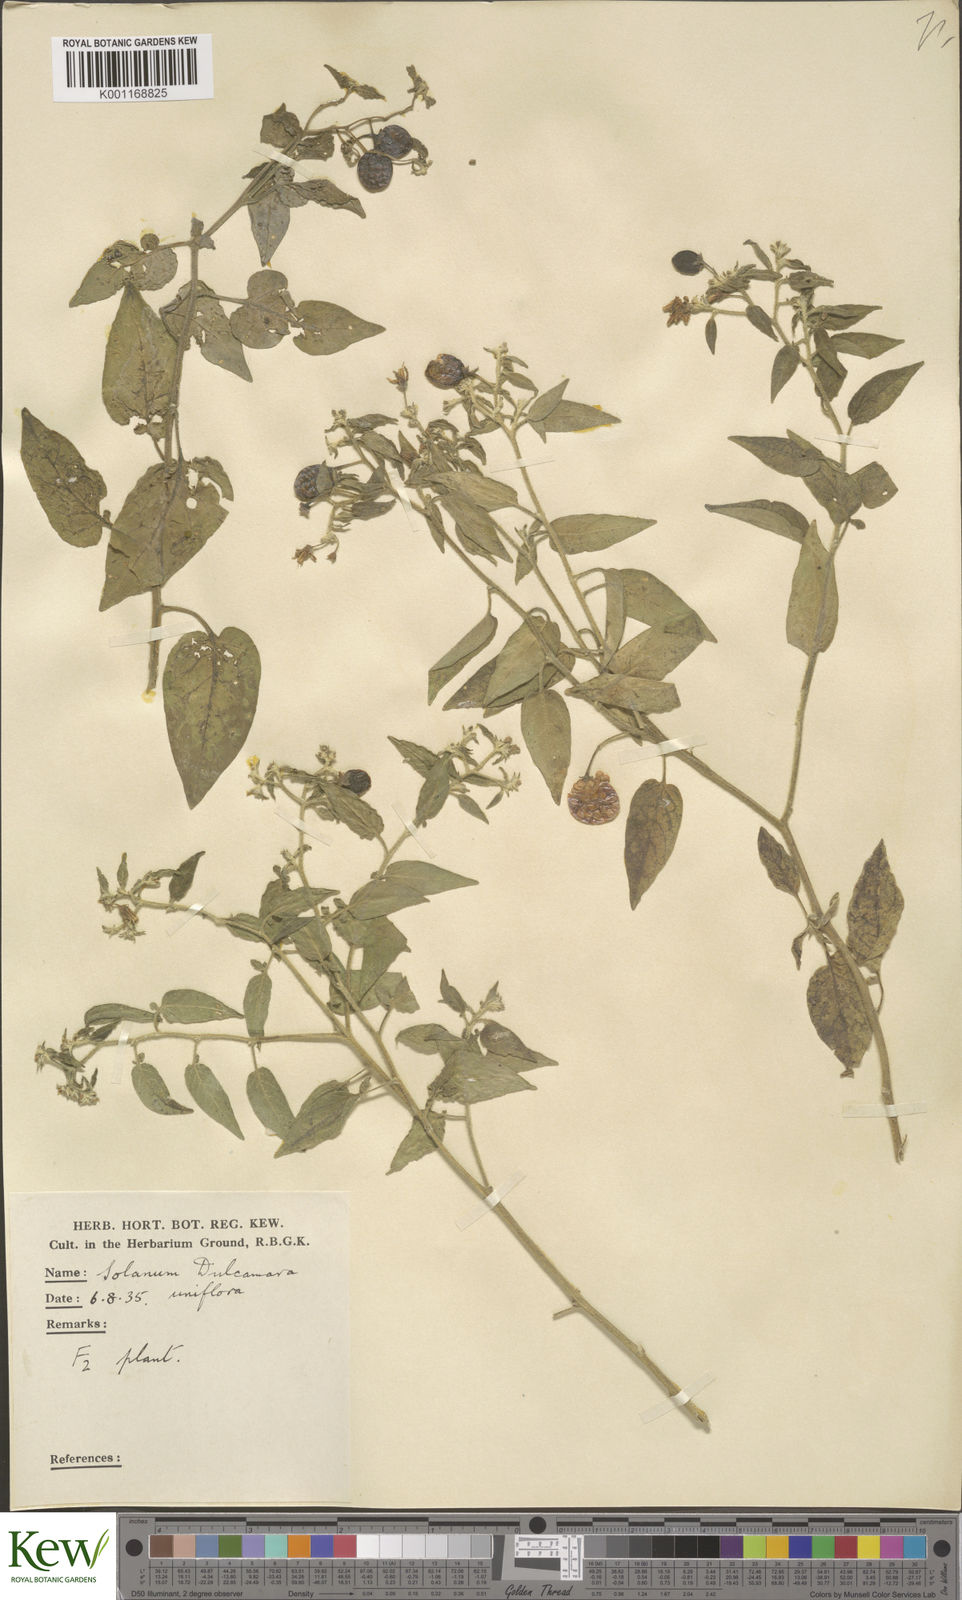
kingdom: Plantae
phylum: Tracheophyta
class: Magnoliopsida
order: Solanales
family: Solanaceae
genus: Solanum
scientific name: Solanum dulcamara
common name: Climbing nightshade
